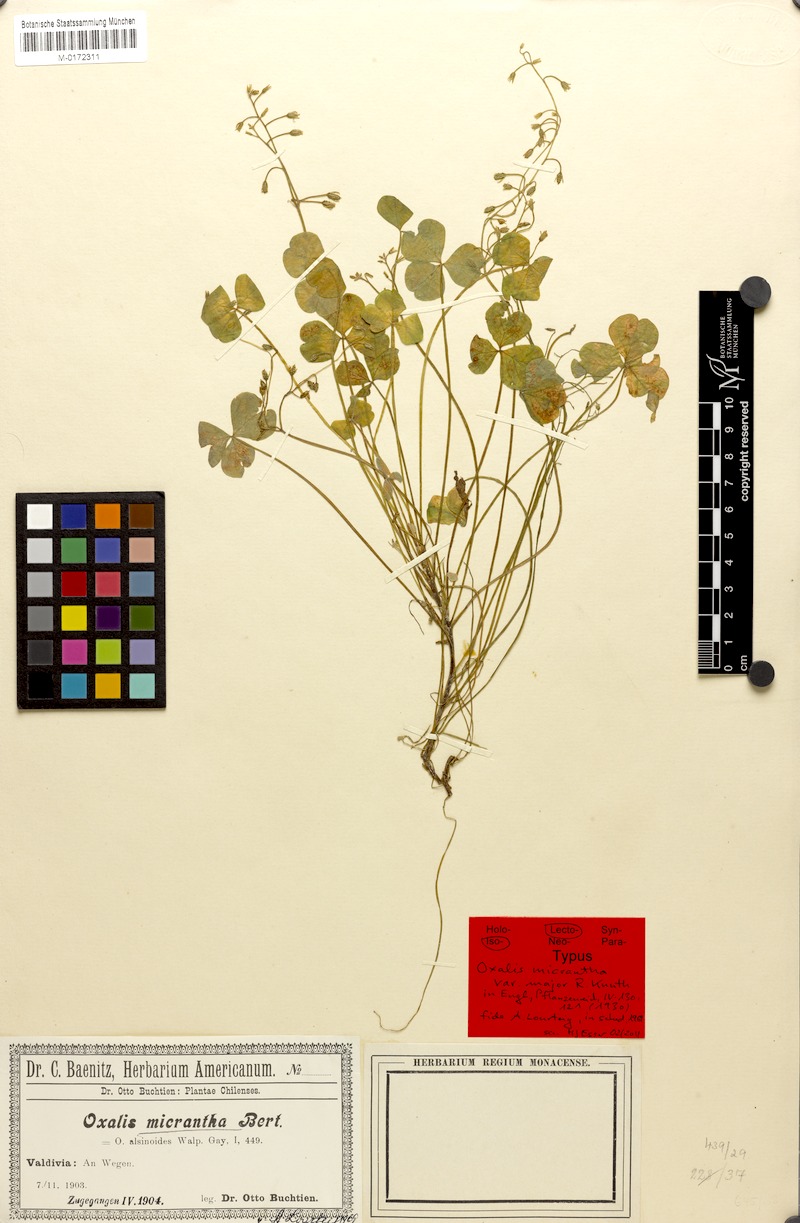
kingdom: Plantae
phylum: Tracheophyta
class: Magnoliopsida
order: Oxalidales
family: Oxalidaceae
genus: Oxalis
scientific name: Oxalis micrantha
